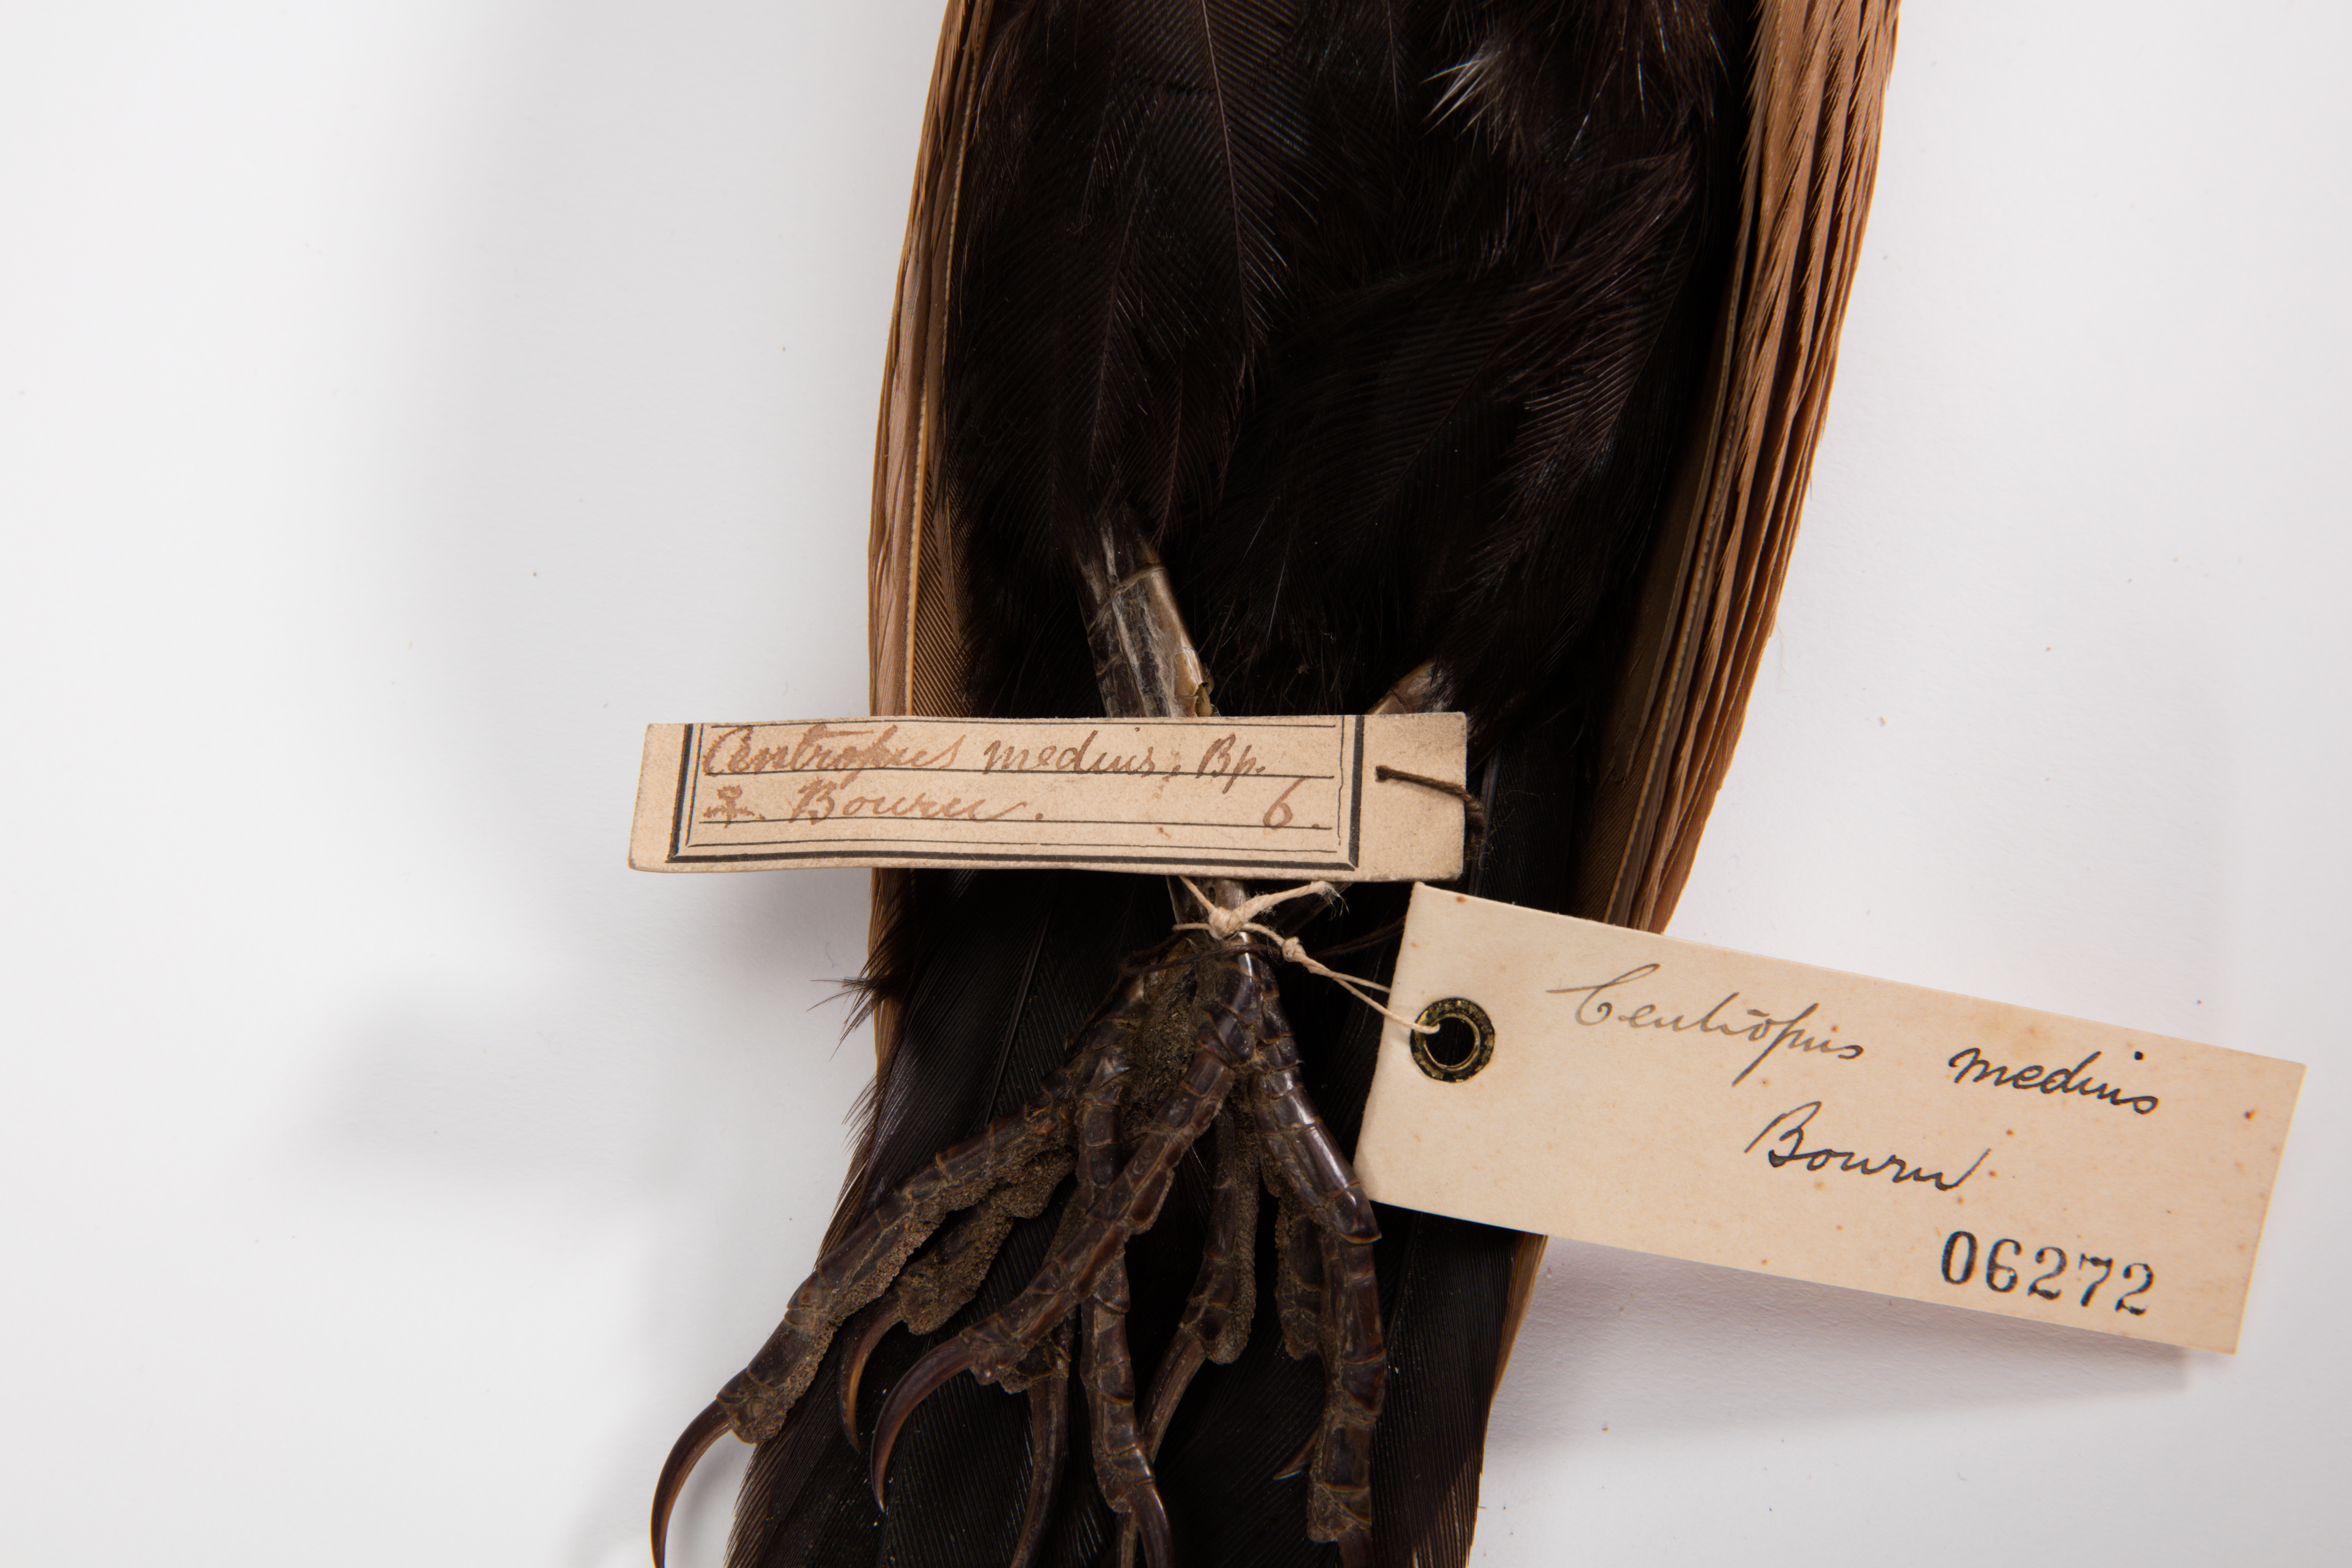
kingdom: Animalia
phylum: Chordata
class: Aves
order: Cuculiformes
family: Cuculidae
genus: Centropus
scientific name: Centropus bengalensis
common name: Lesser coucal
